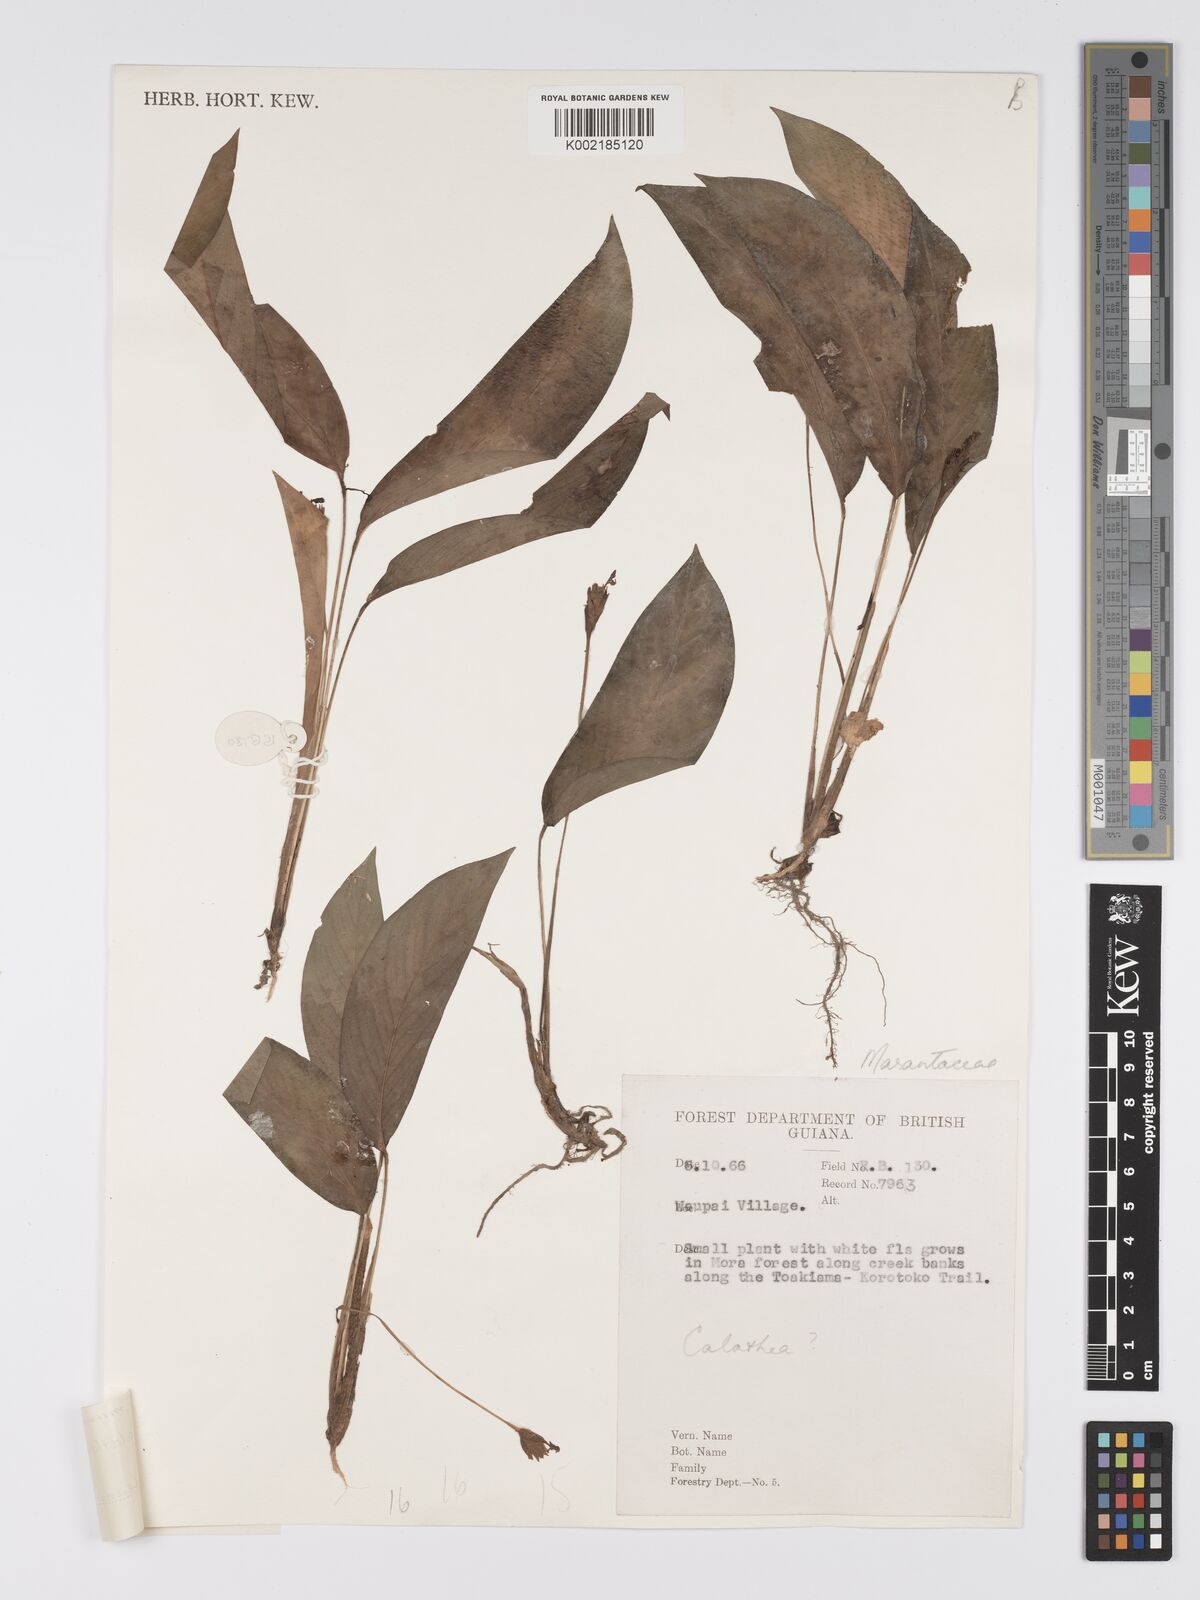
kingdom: Plantae
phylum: Tracheophyta
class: Liliopsida
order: Zingiberales
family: Marantaceae
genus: Goeppertia
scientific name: Goeppertia micans
